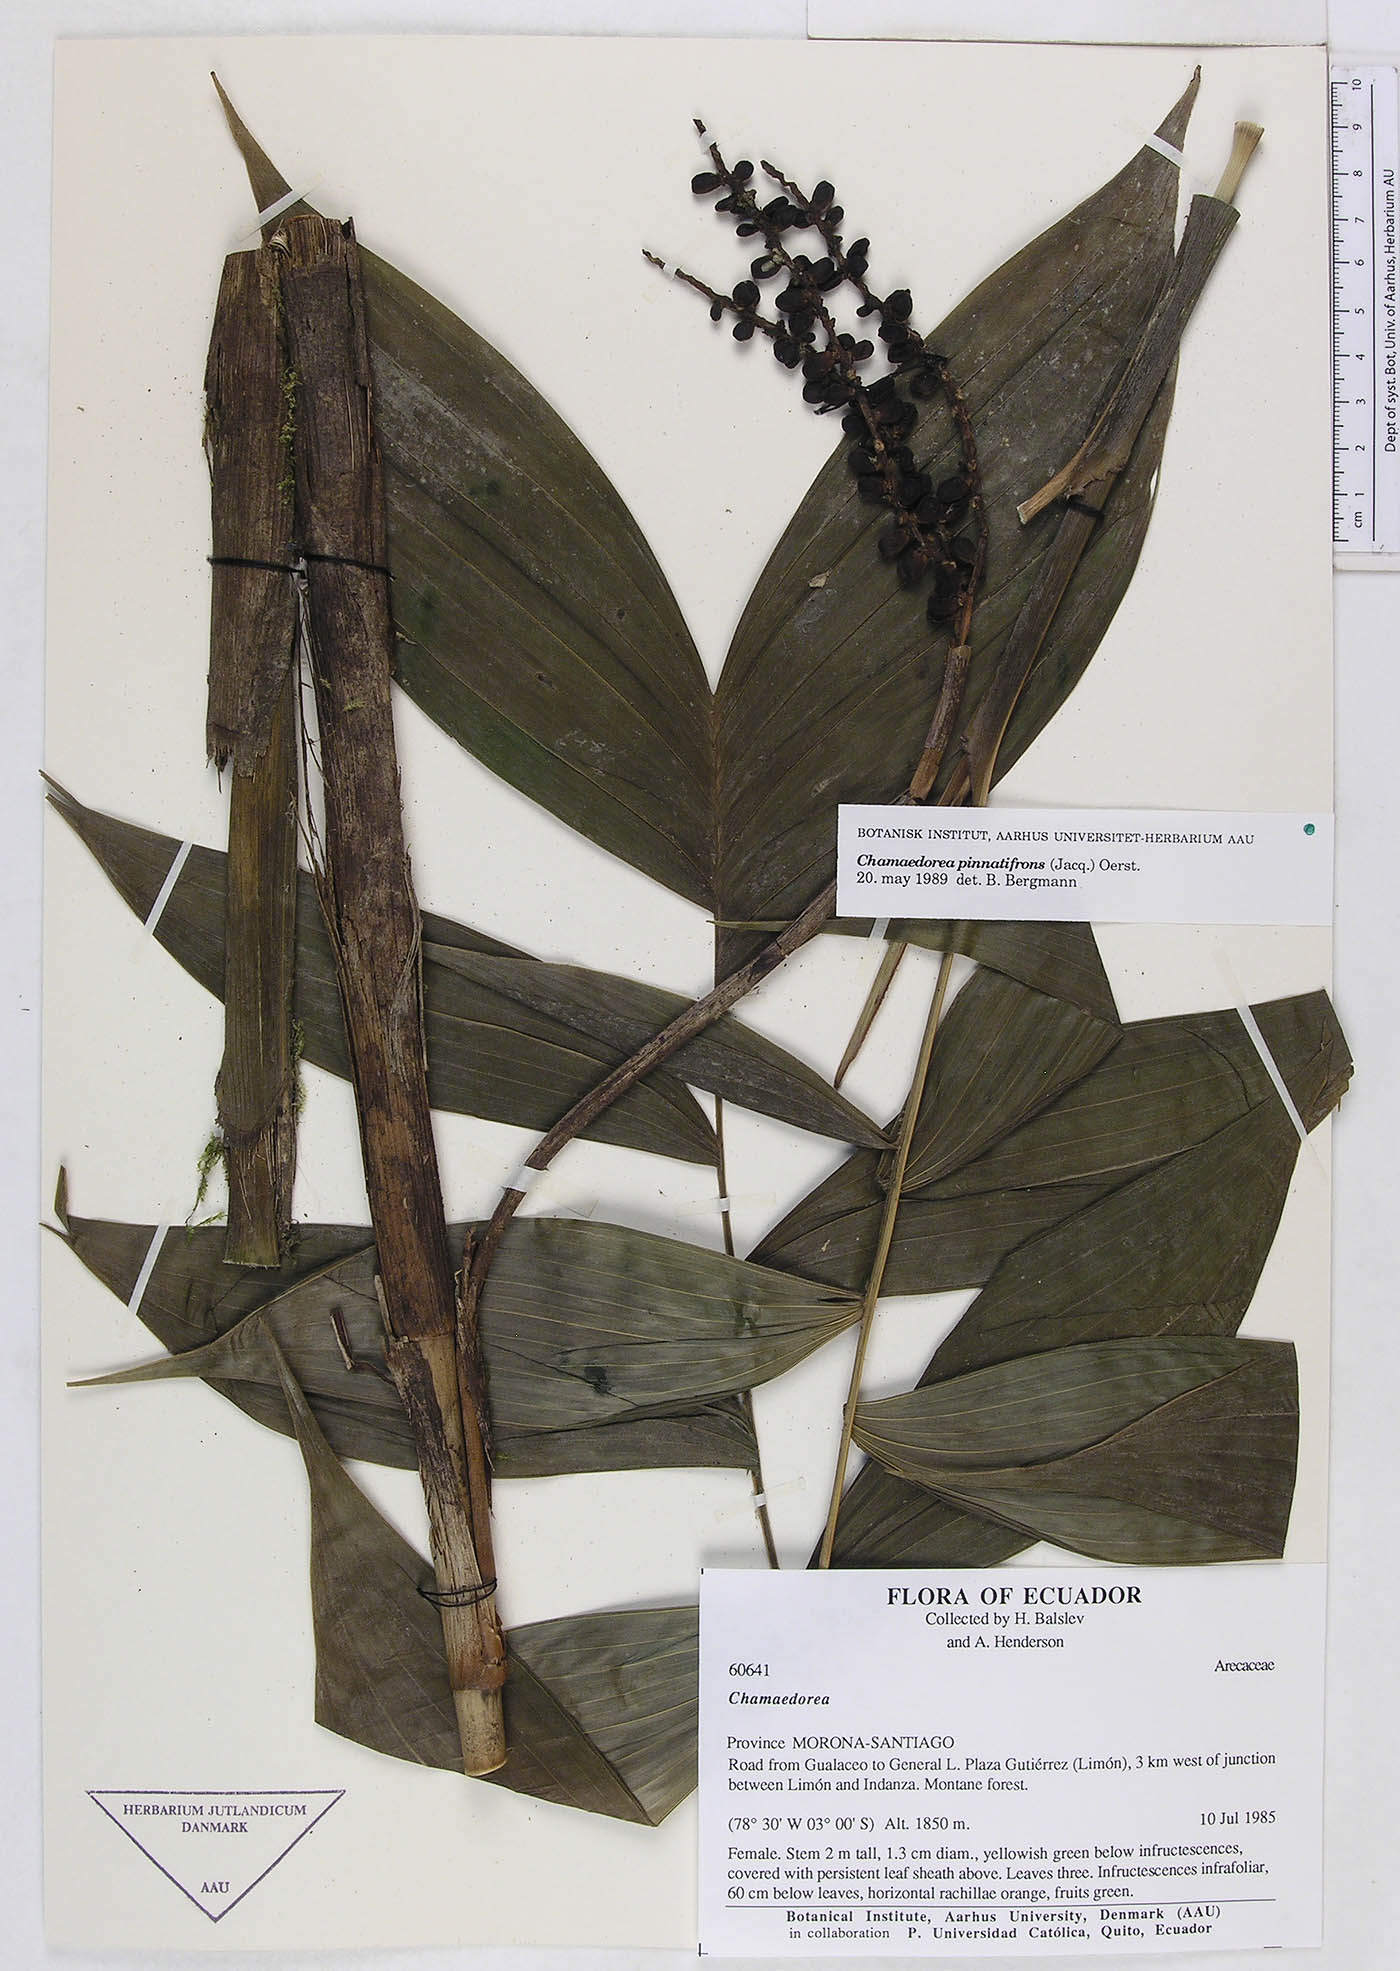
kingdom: Plantae
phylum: Tracheophyta
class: Liliopsida
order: Arecales
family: Arecaceae
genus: Chamaedorea
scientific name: Chamaedorea pinnatifrons
